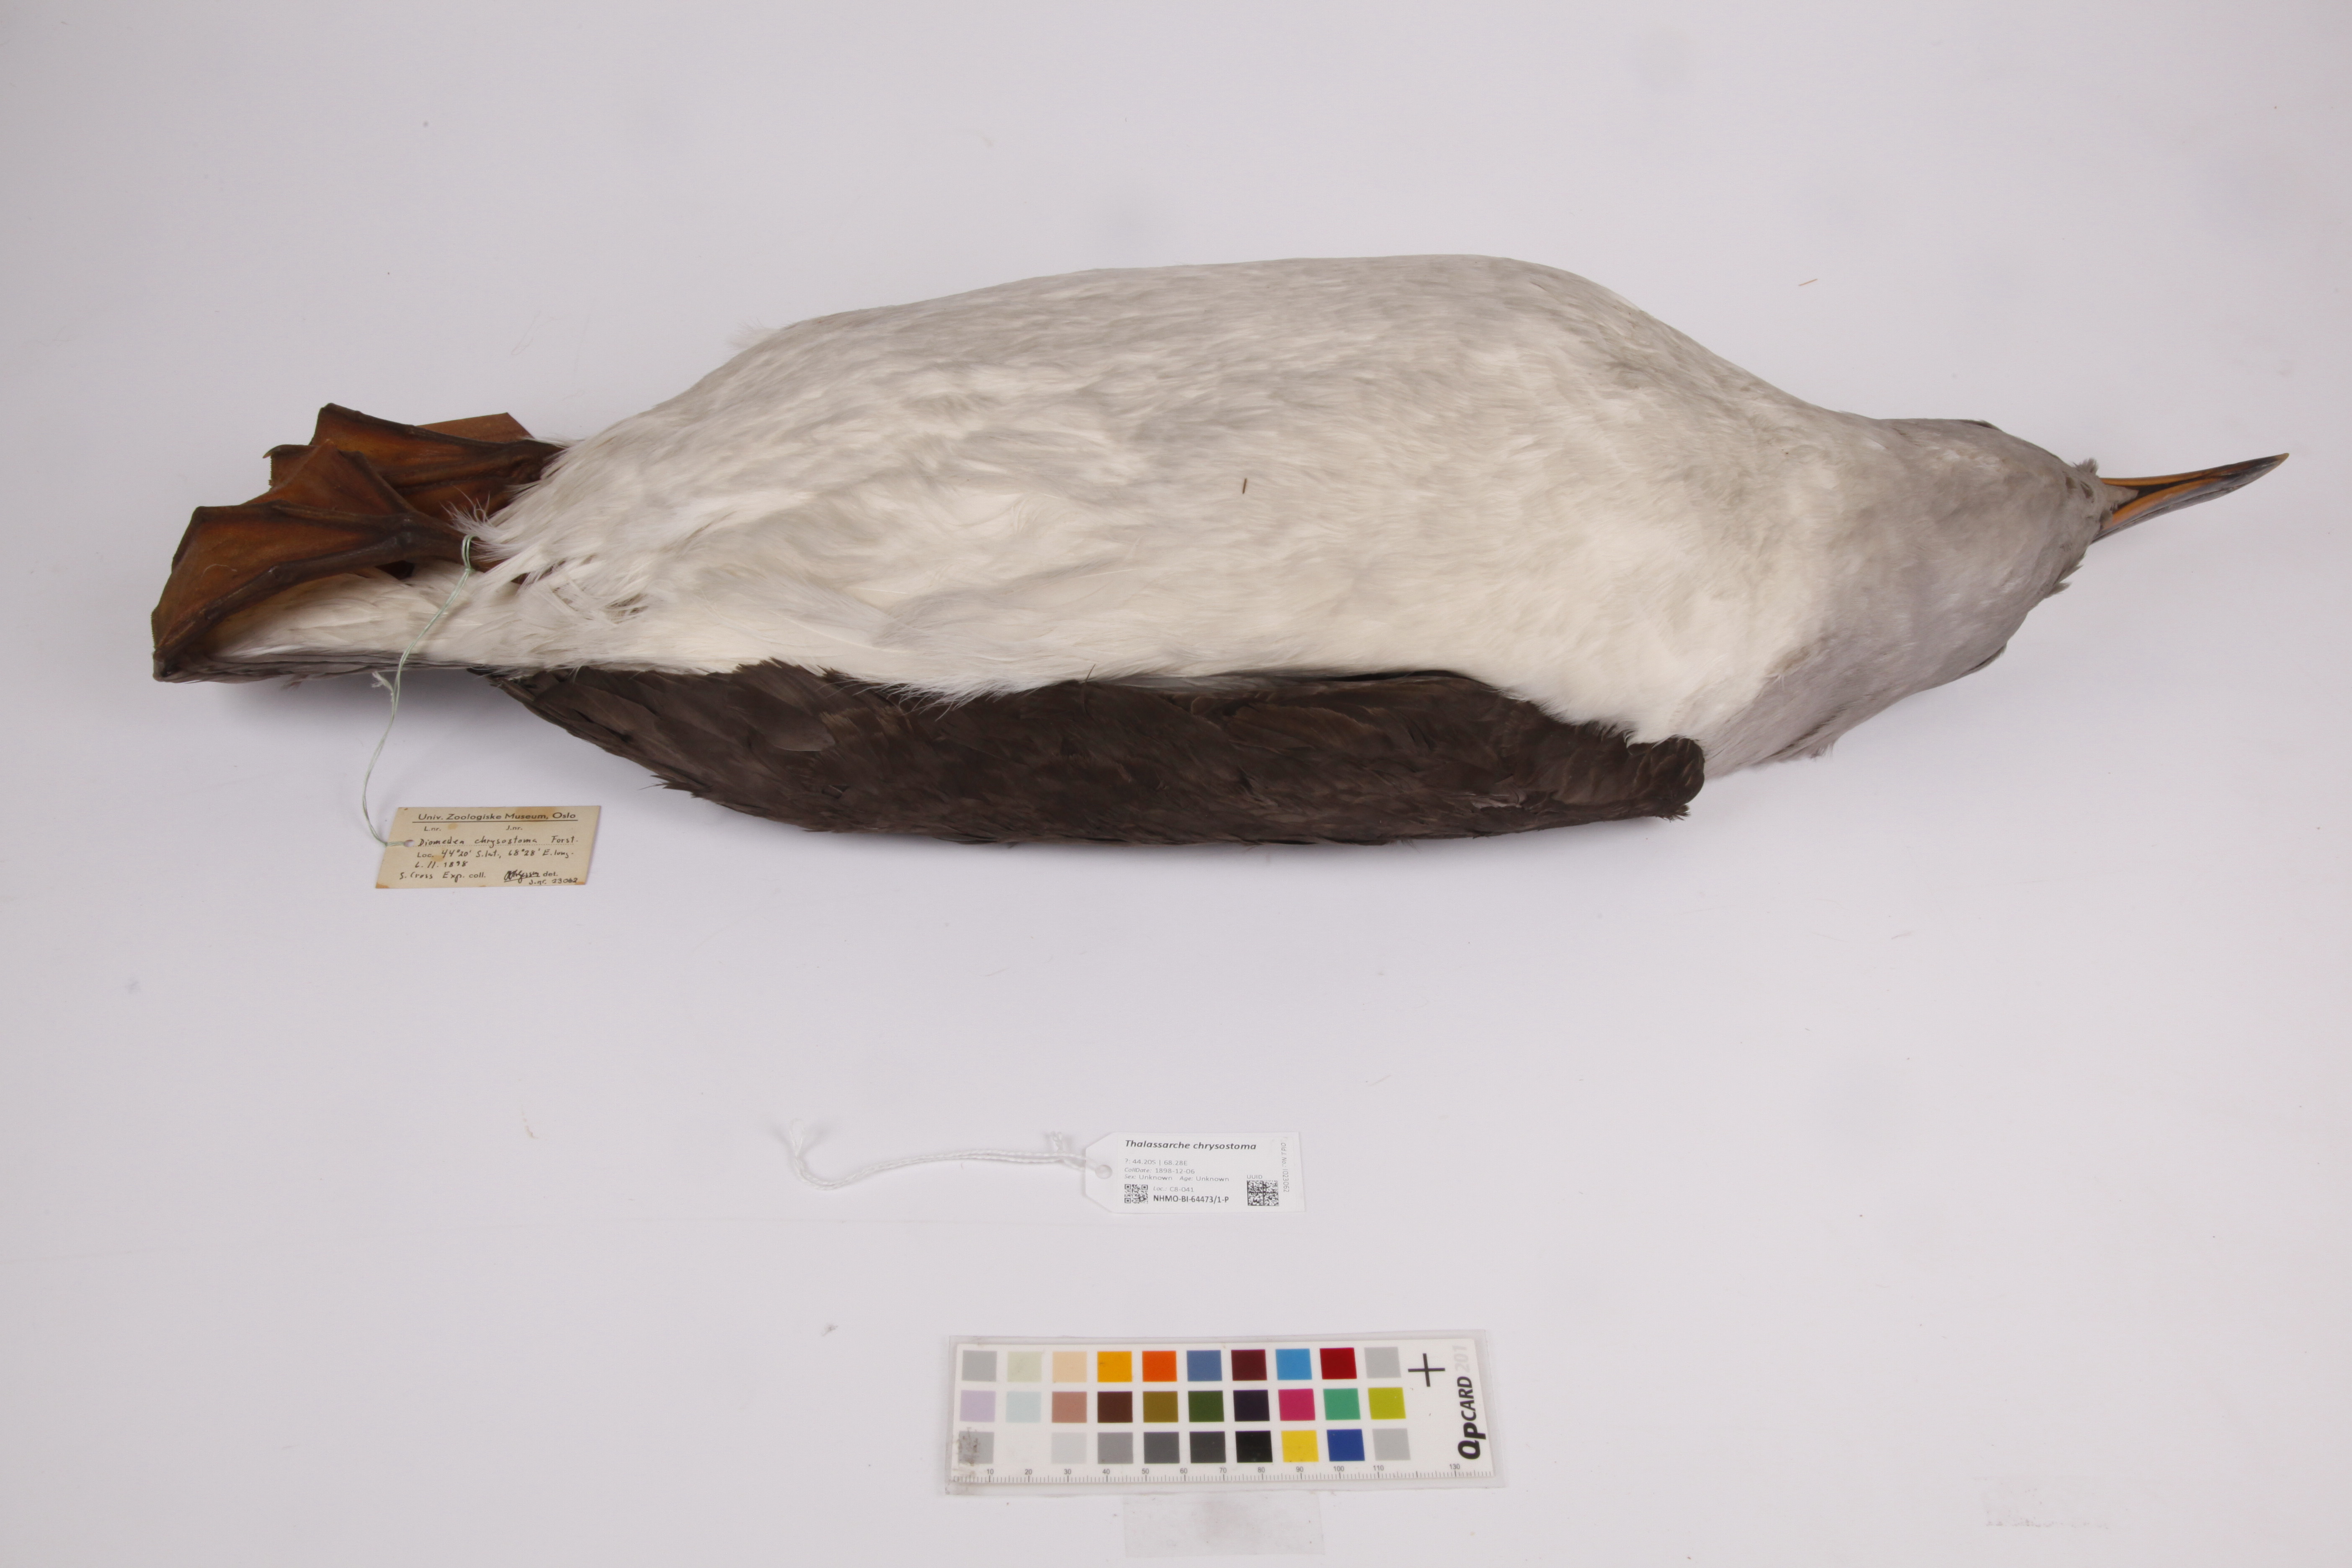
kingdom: Animalia
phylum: Chordata
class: Aves
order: Procellariiformes
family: Diomedeidae
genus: Thalassarche
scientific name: Thalassarche chrysostoma
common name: Grey-headed albatross
